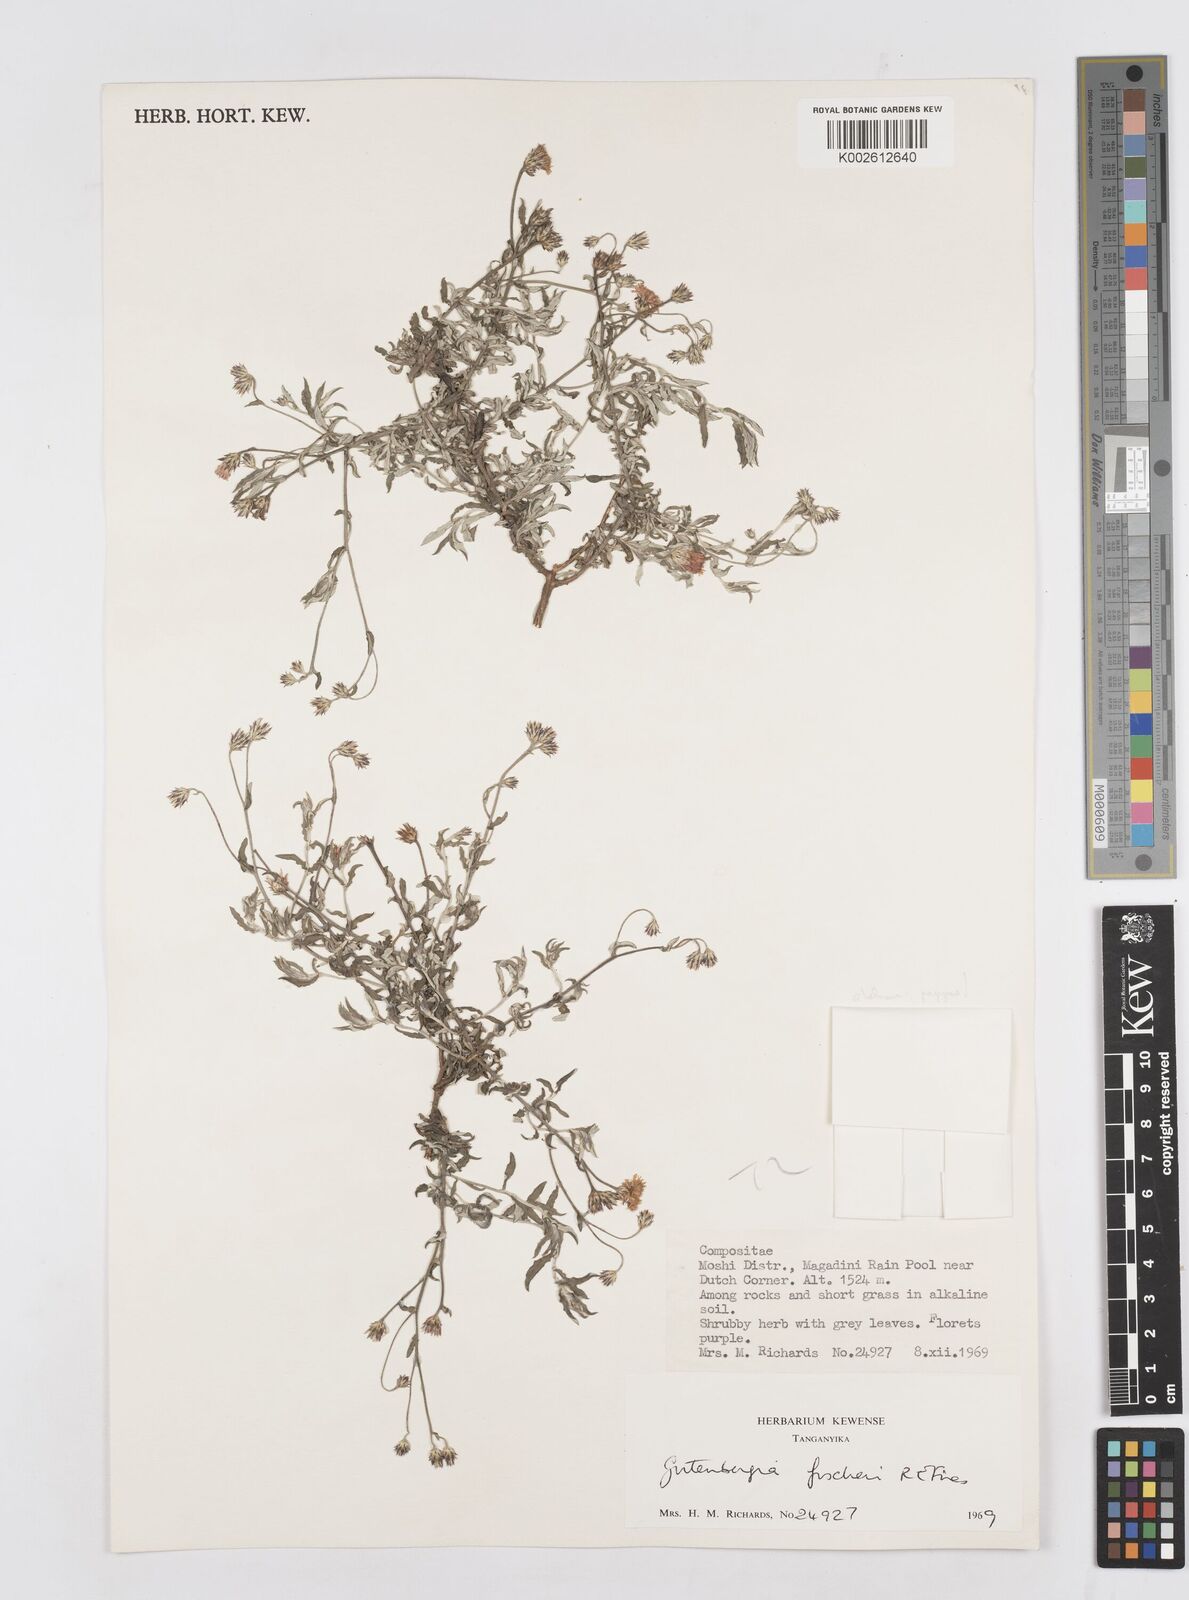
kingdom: Plantae
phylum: Tracheophyta
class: Magnoliopsida
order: Asterales
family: Asteraceae
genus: Gutenbergia
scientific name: Gutenbergia rueppellii
